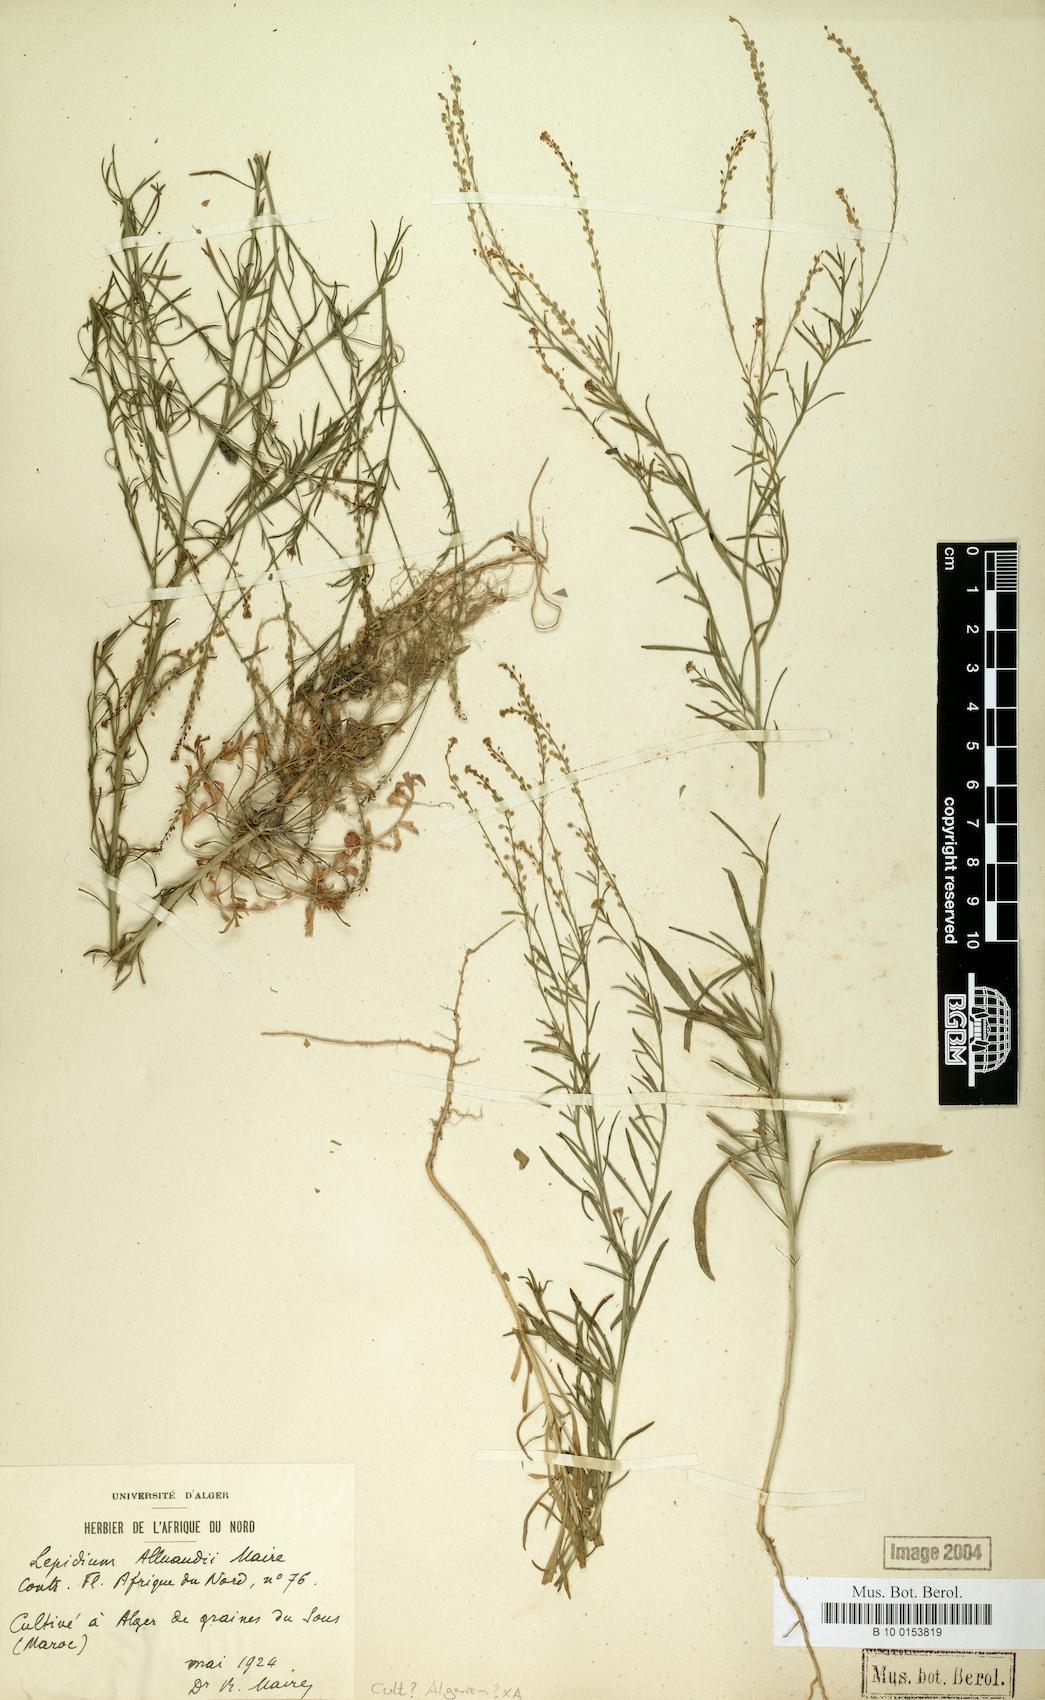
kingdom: Plantae
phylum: Tracheophyta
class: Magnoliopsida
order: Brassicales
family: Brassicaceae
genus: Lepidium
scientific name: Lepidium alluaudii
